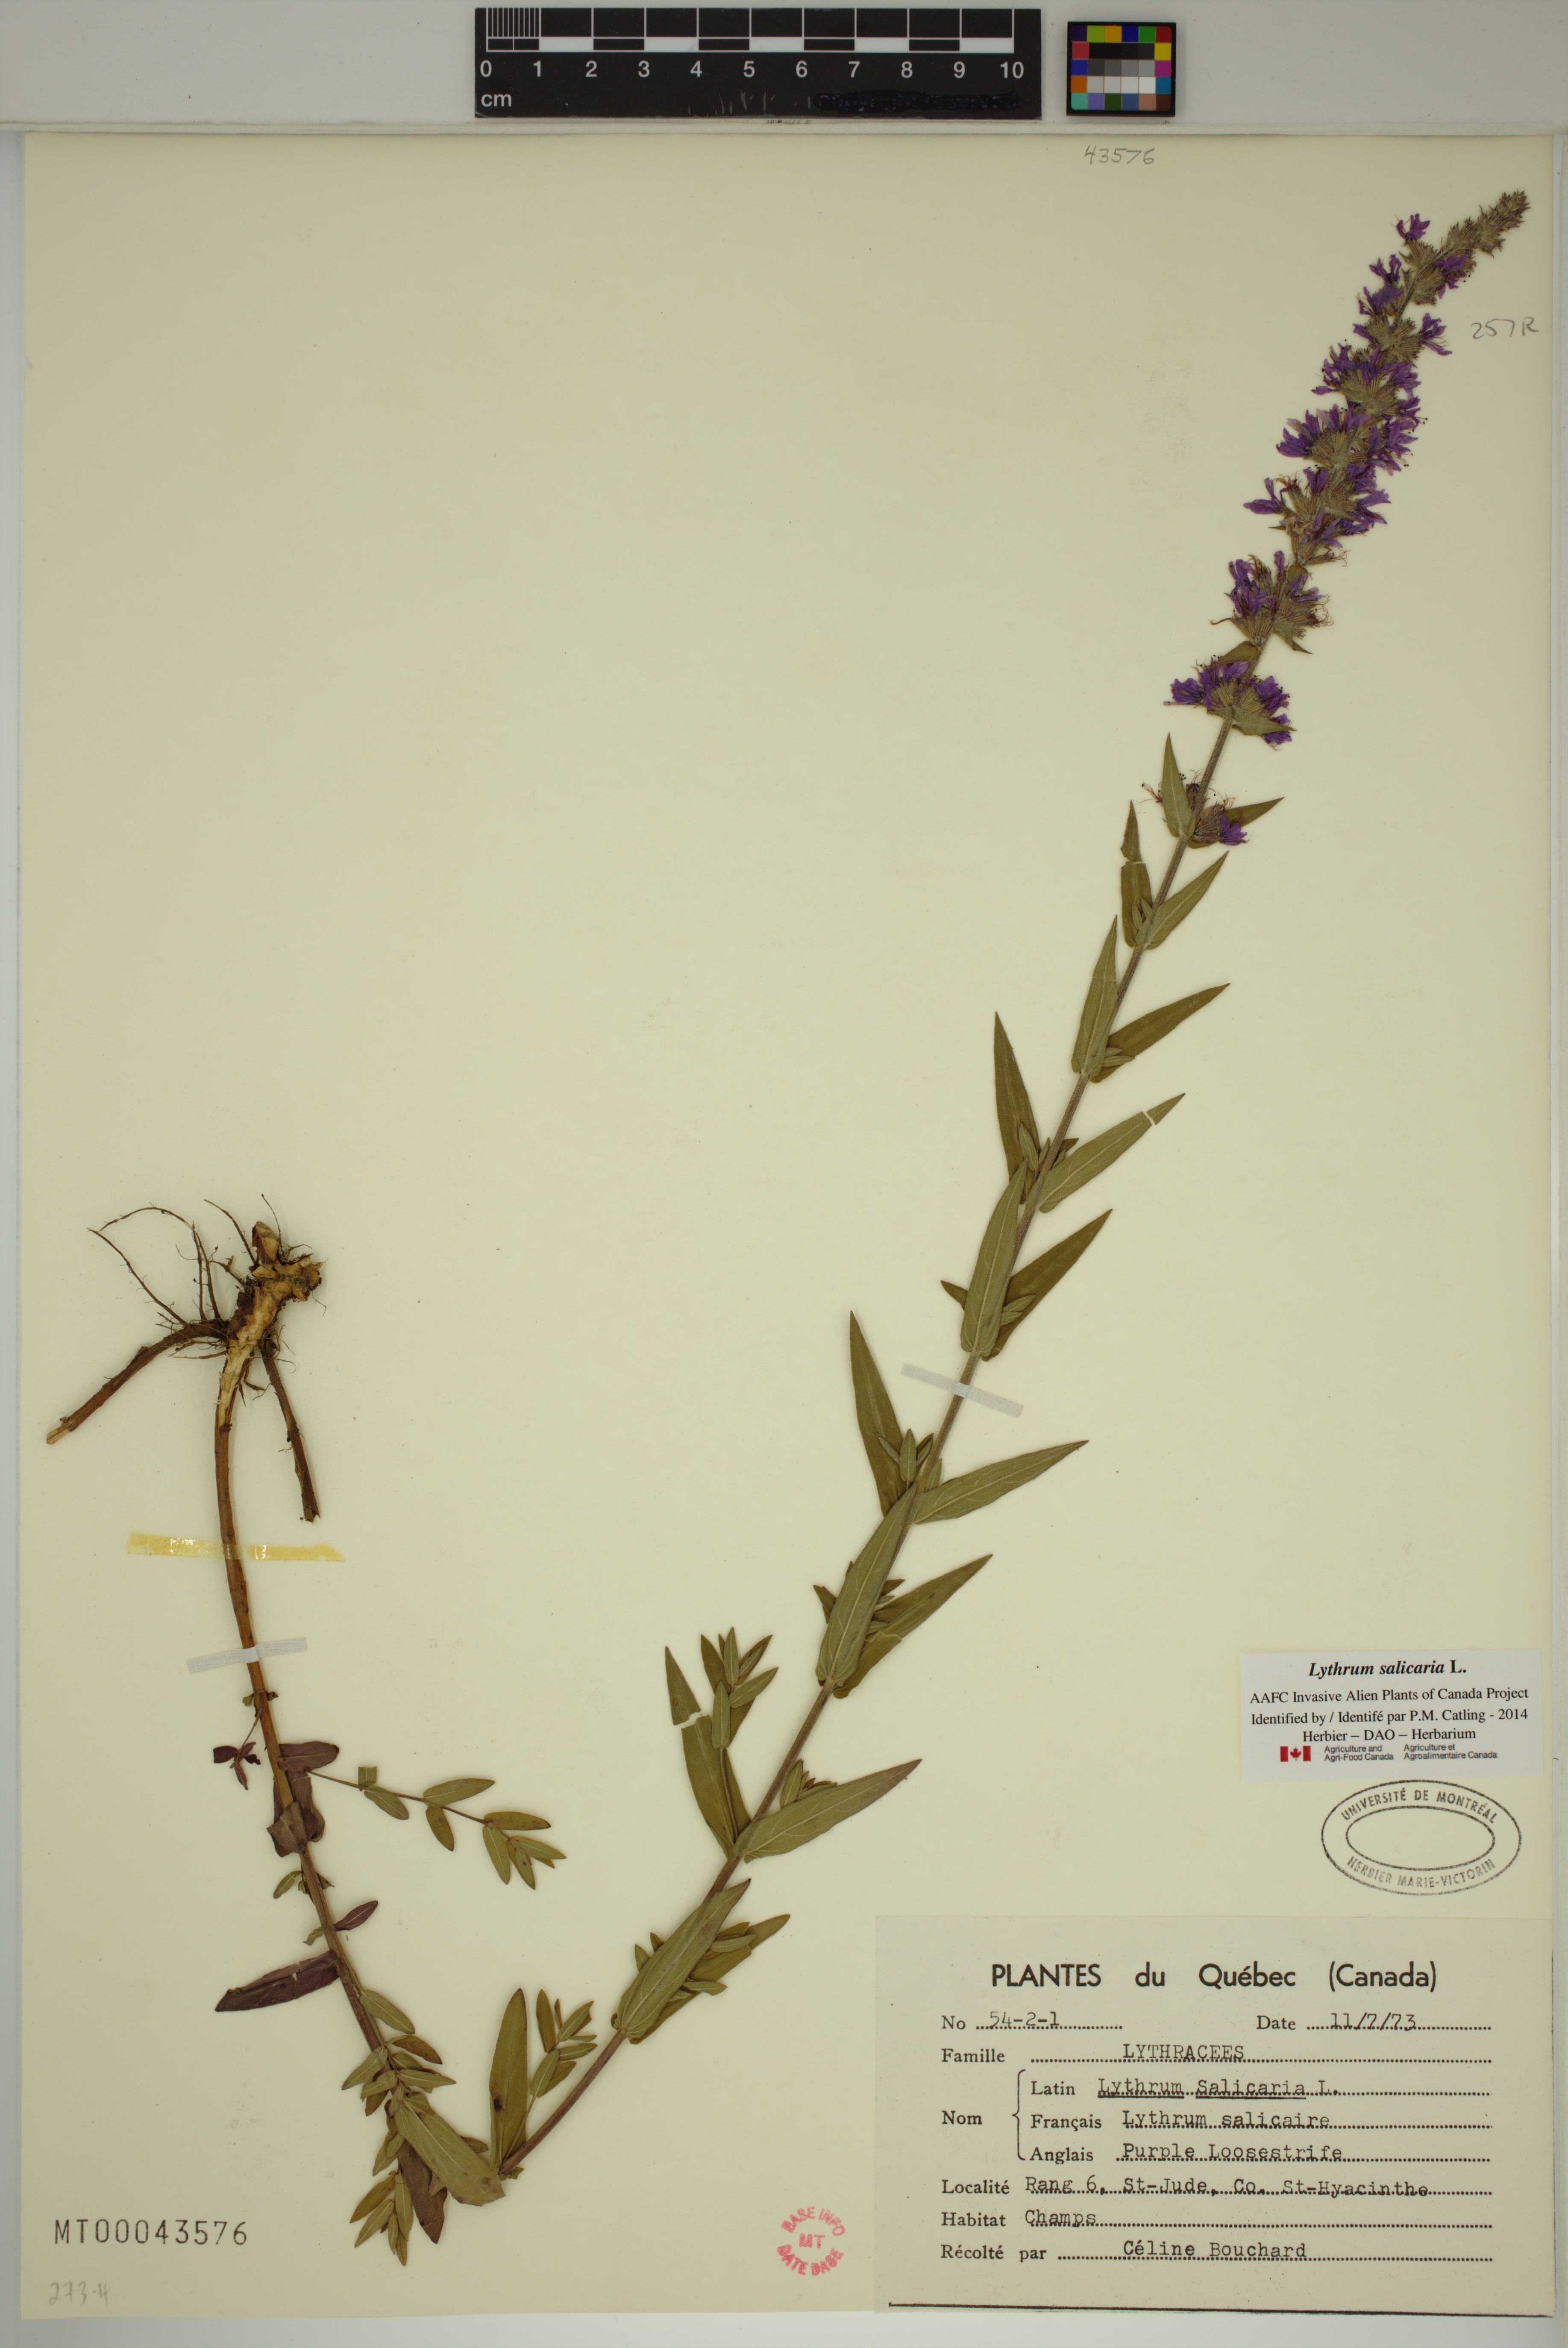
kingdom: Plantae
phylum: Tracheophyta
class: Magnoliopsida
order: Myrtales
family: Lythraceae
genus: Lythrum
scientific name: Lythrum salicaria
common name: Purple loosestrife
